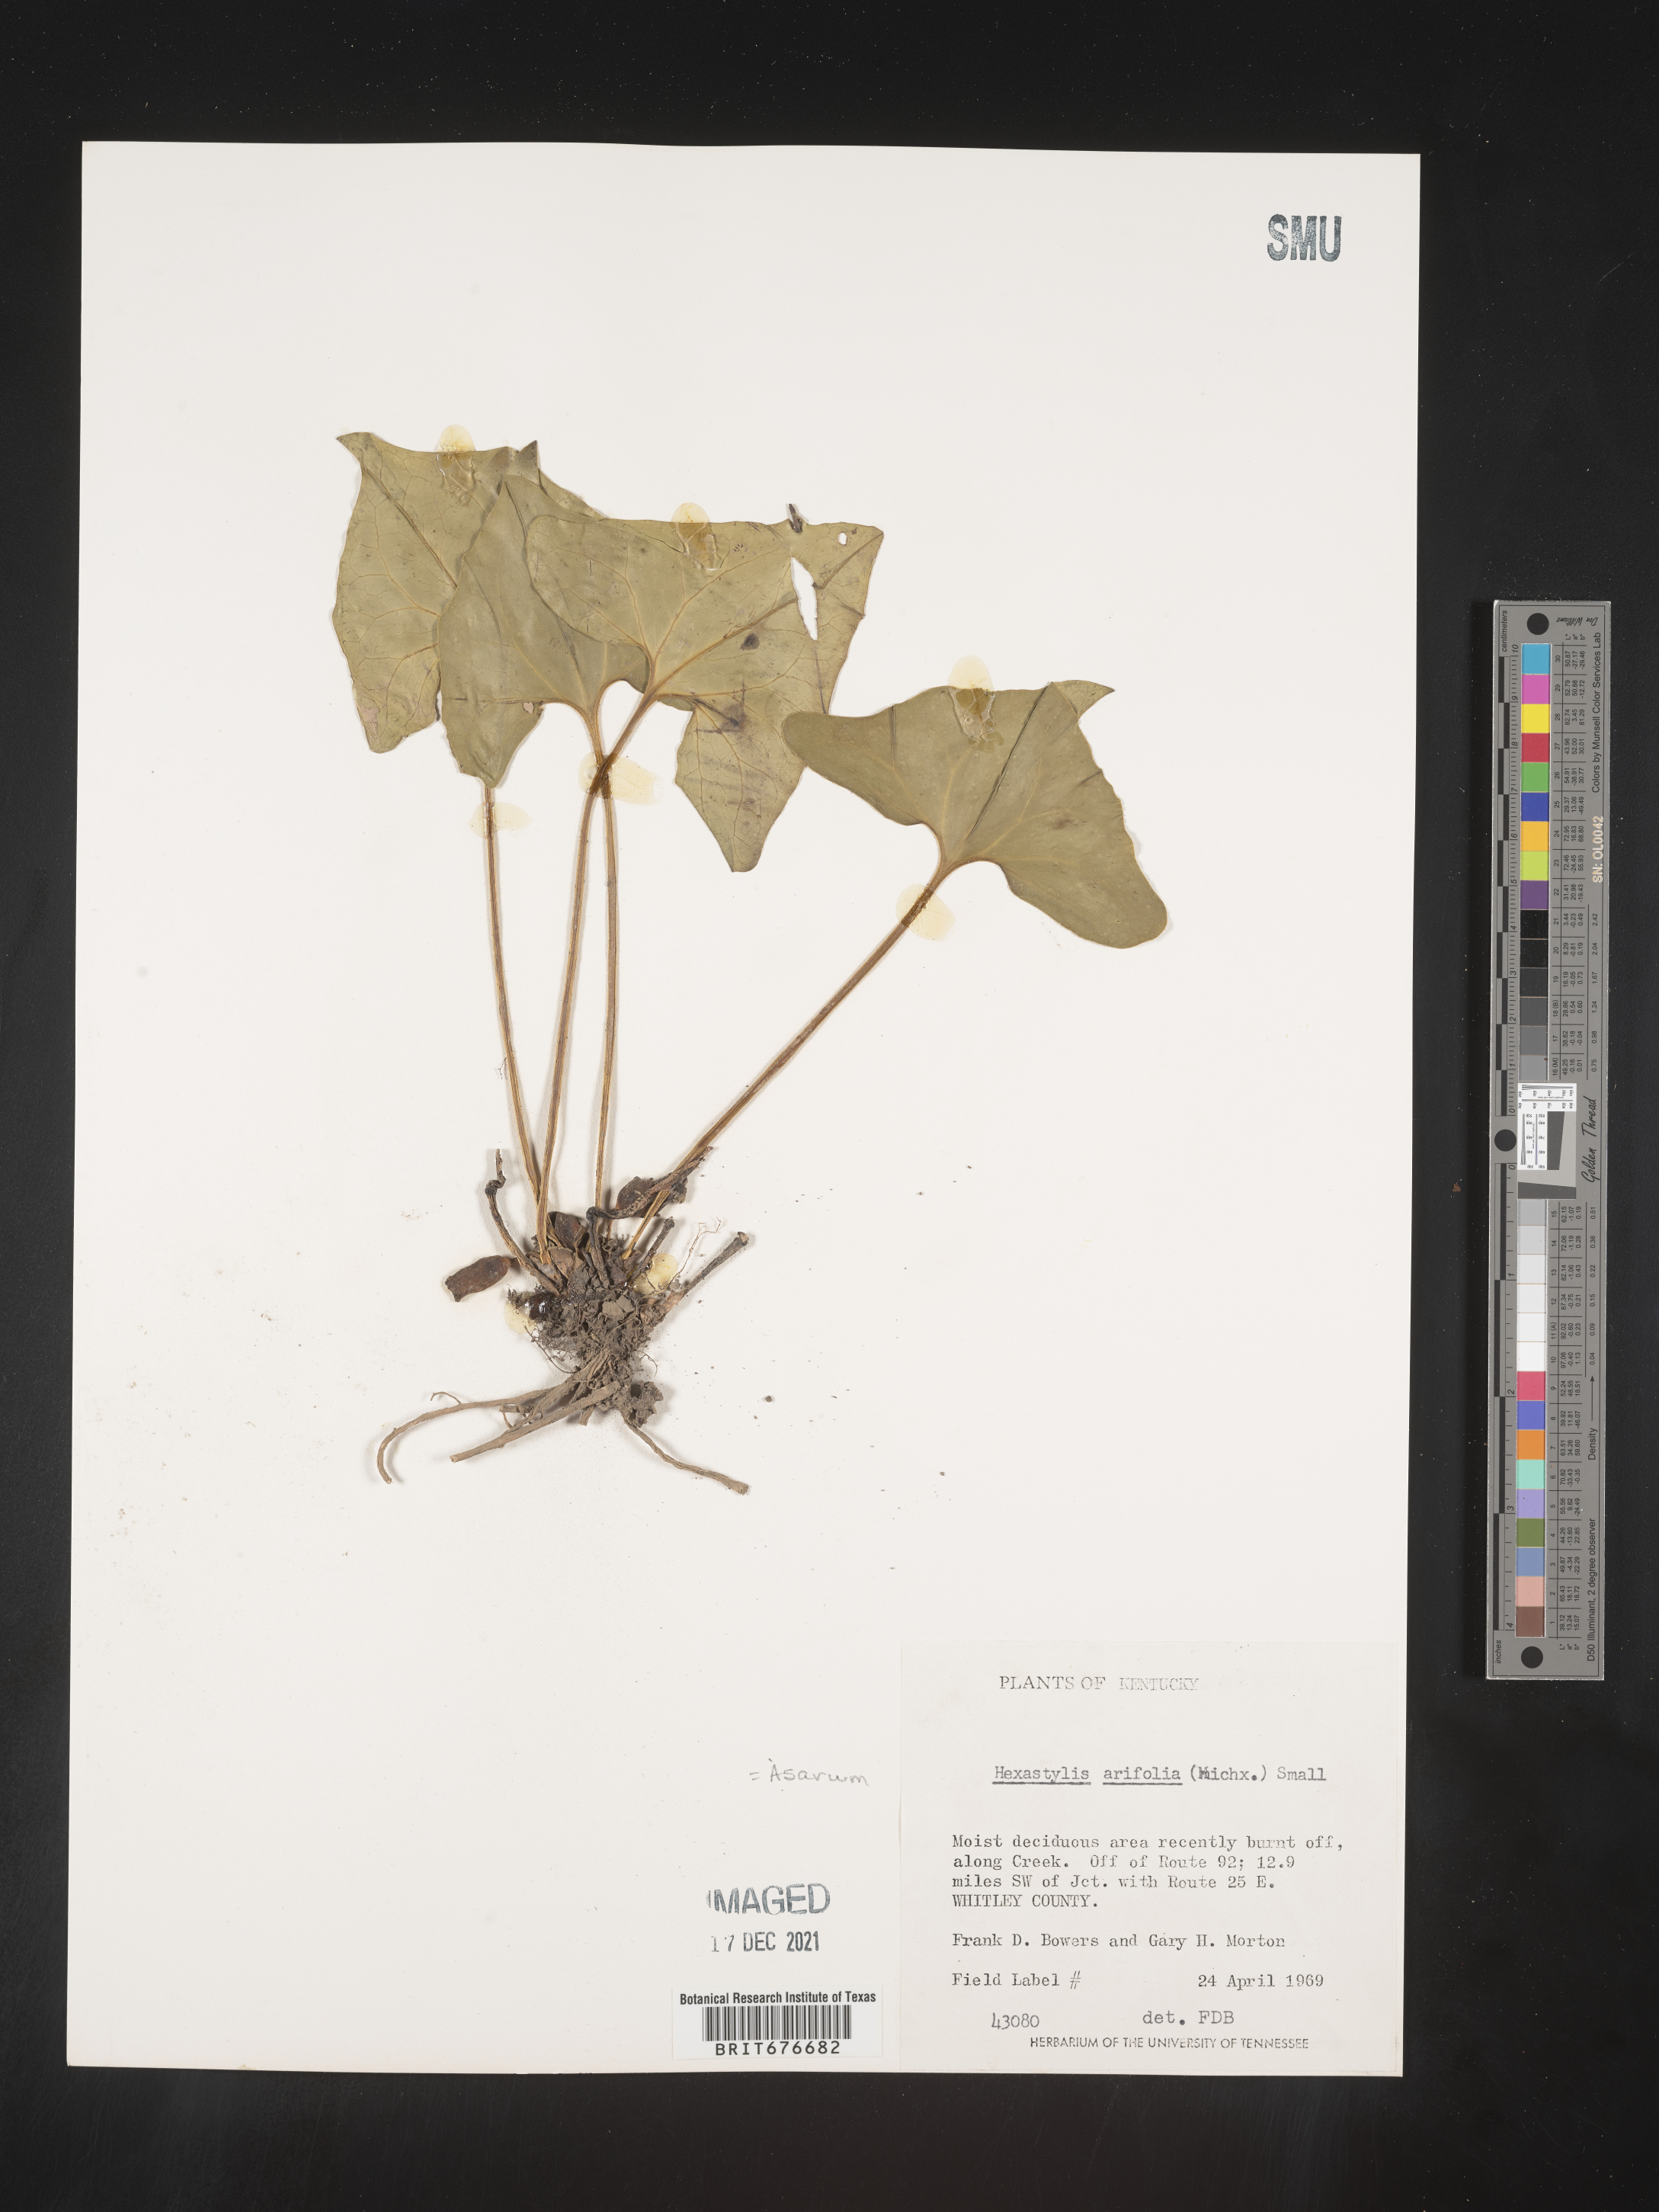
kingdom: Plantae
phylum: Tracheophyta
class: Magnoliopsida
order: Piperales
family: Aristolochiaceae
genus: Hexastylis
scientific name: Hexastylis arifolia
